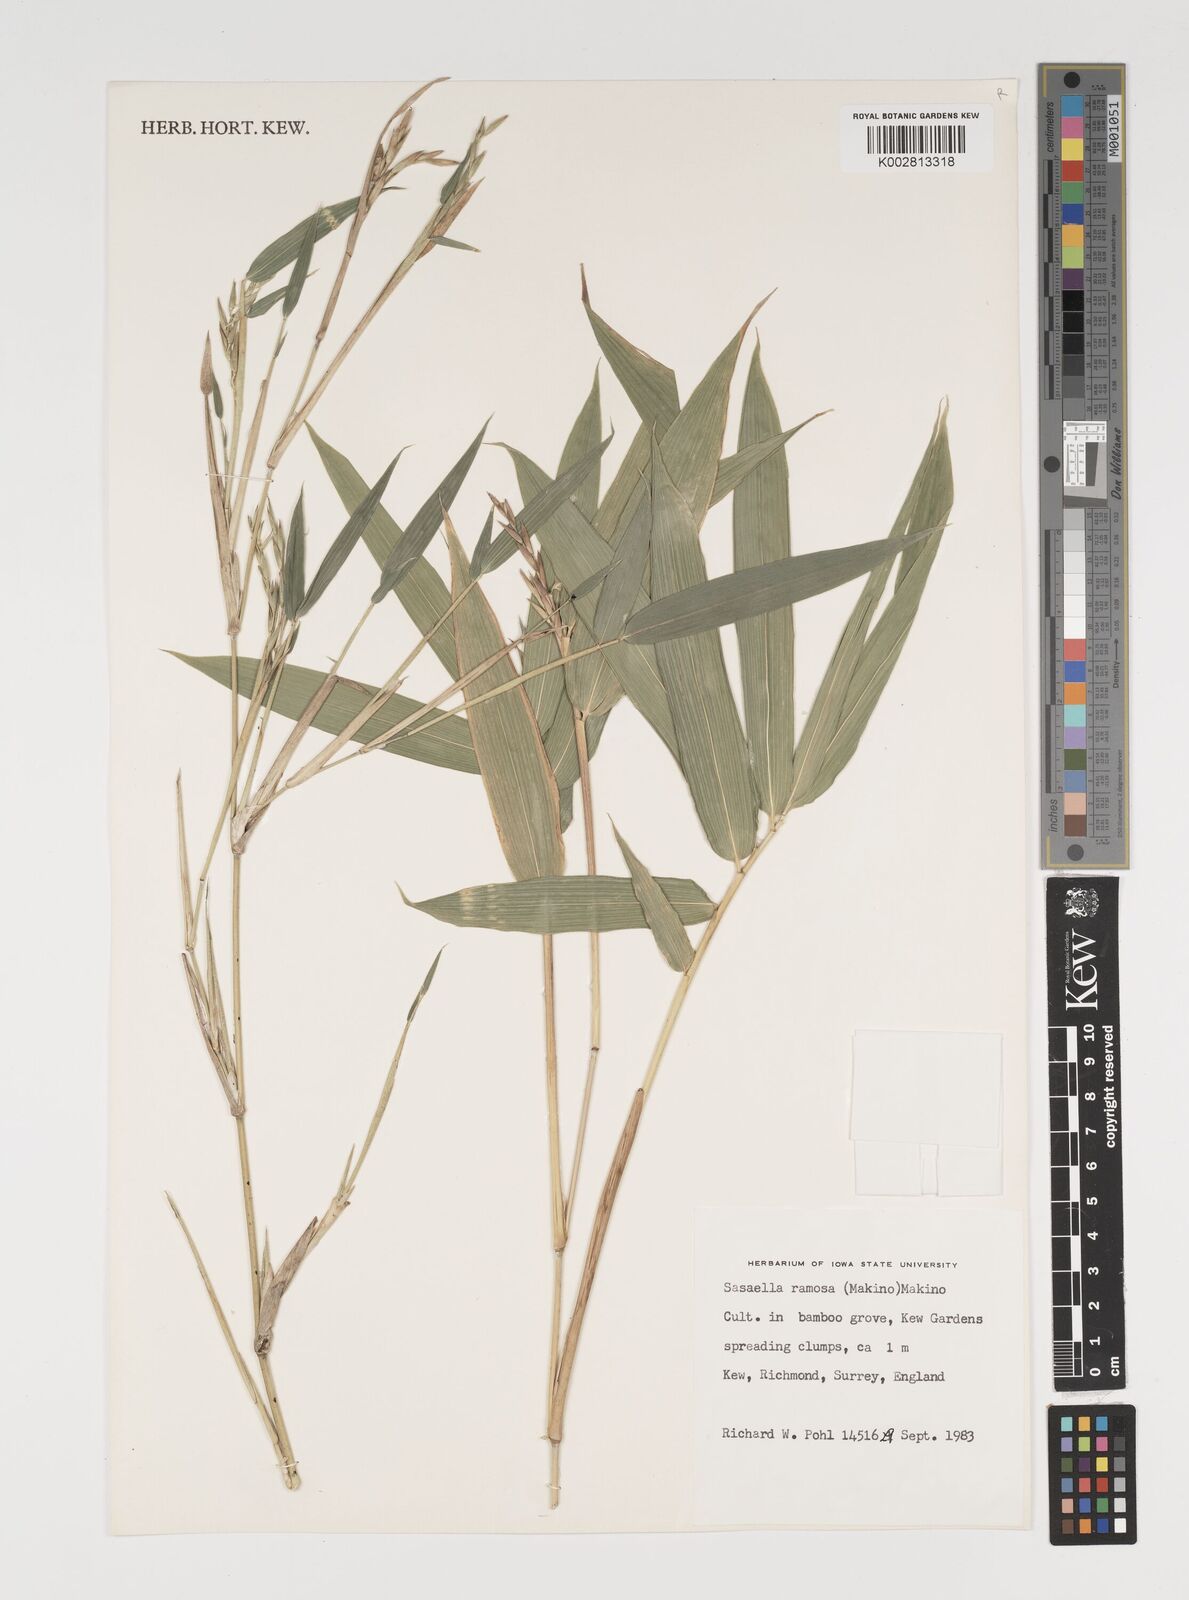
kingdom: Plantae
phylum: Tracheophyta
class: Liliopsida
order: Poales
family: Poaceae
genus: Sasaella
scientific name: Sasaella ramosa
